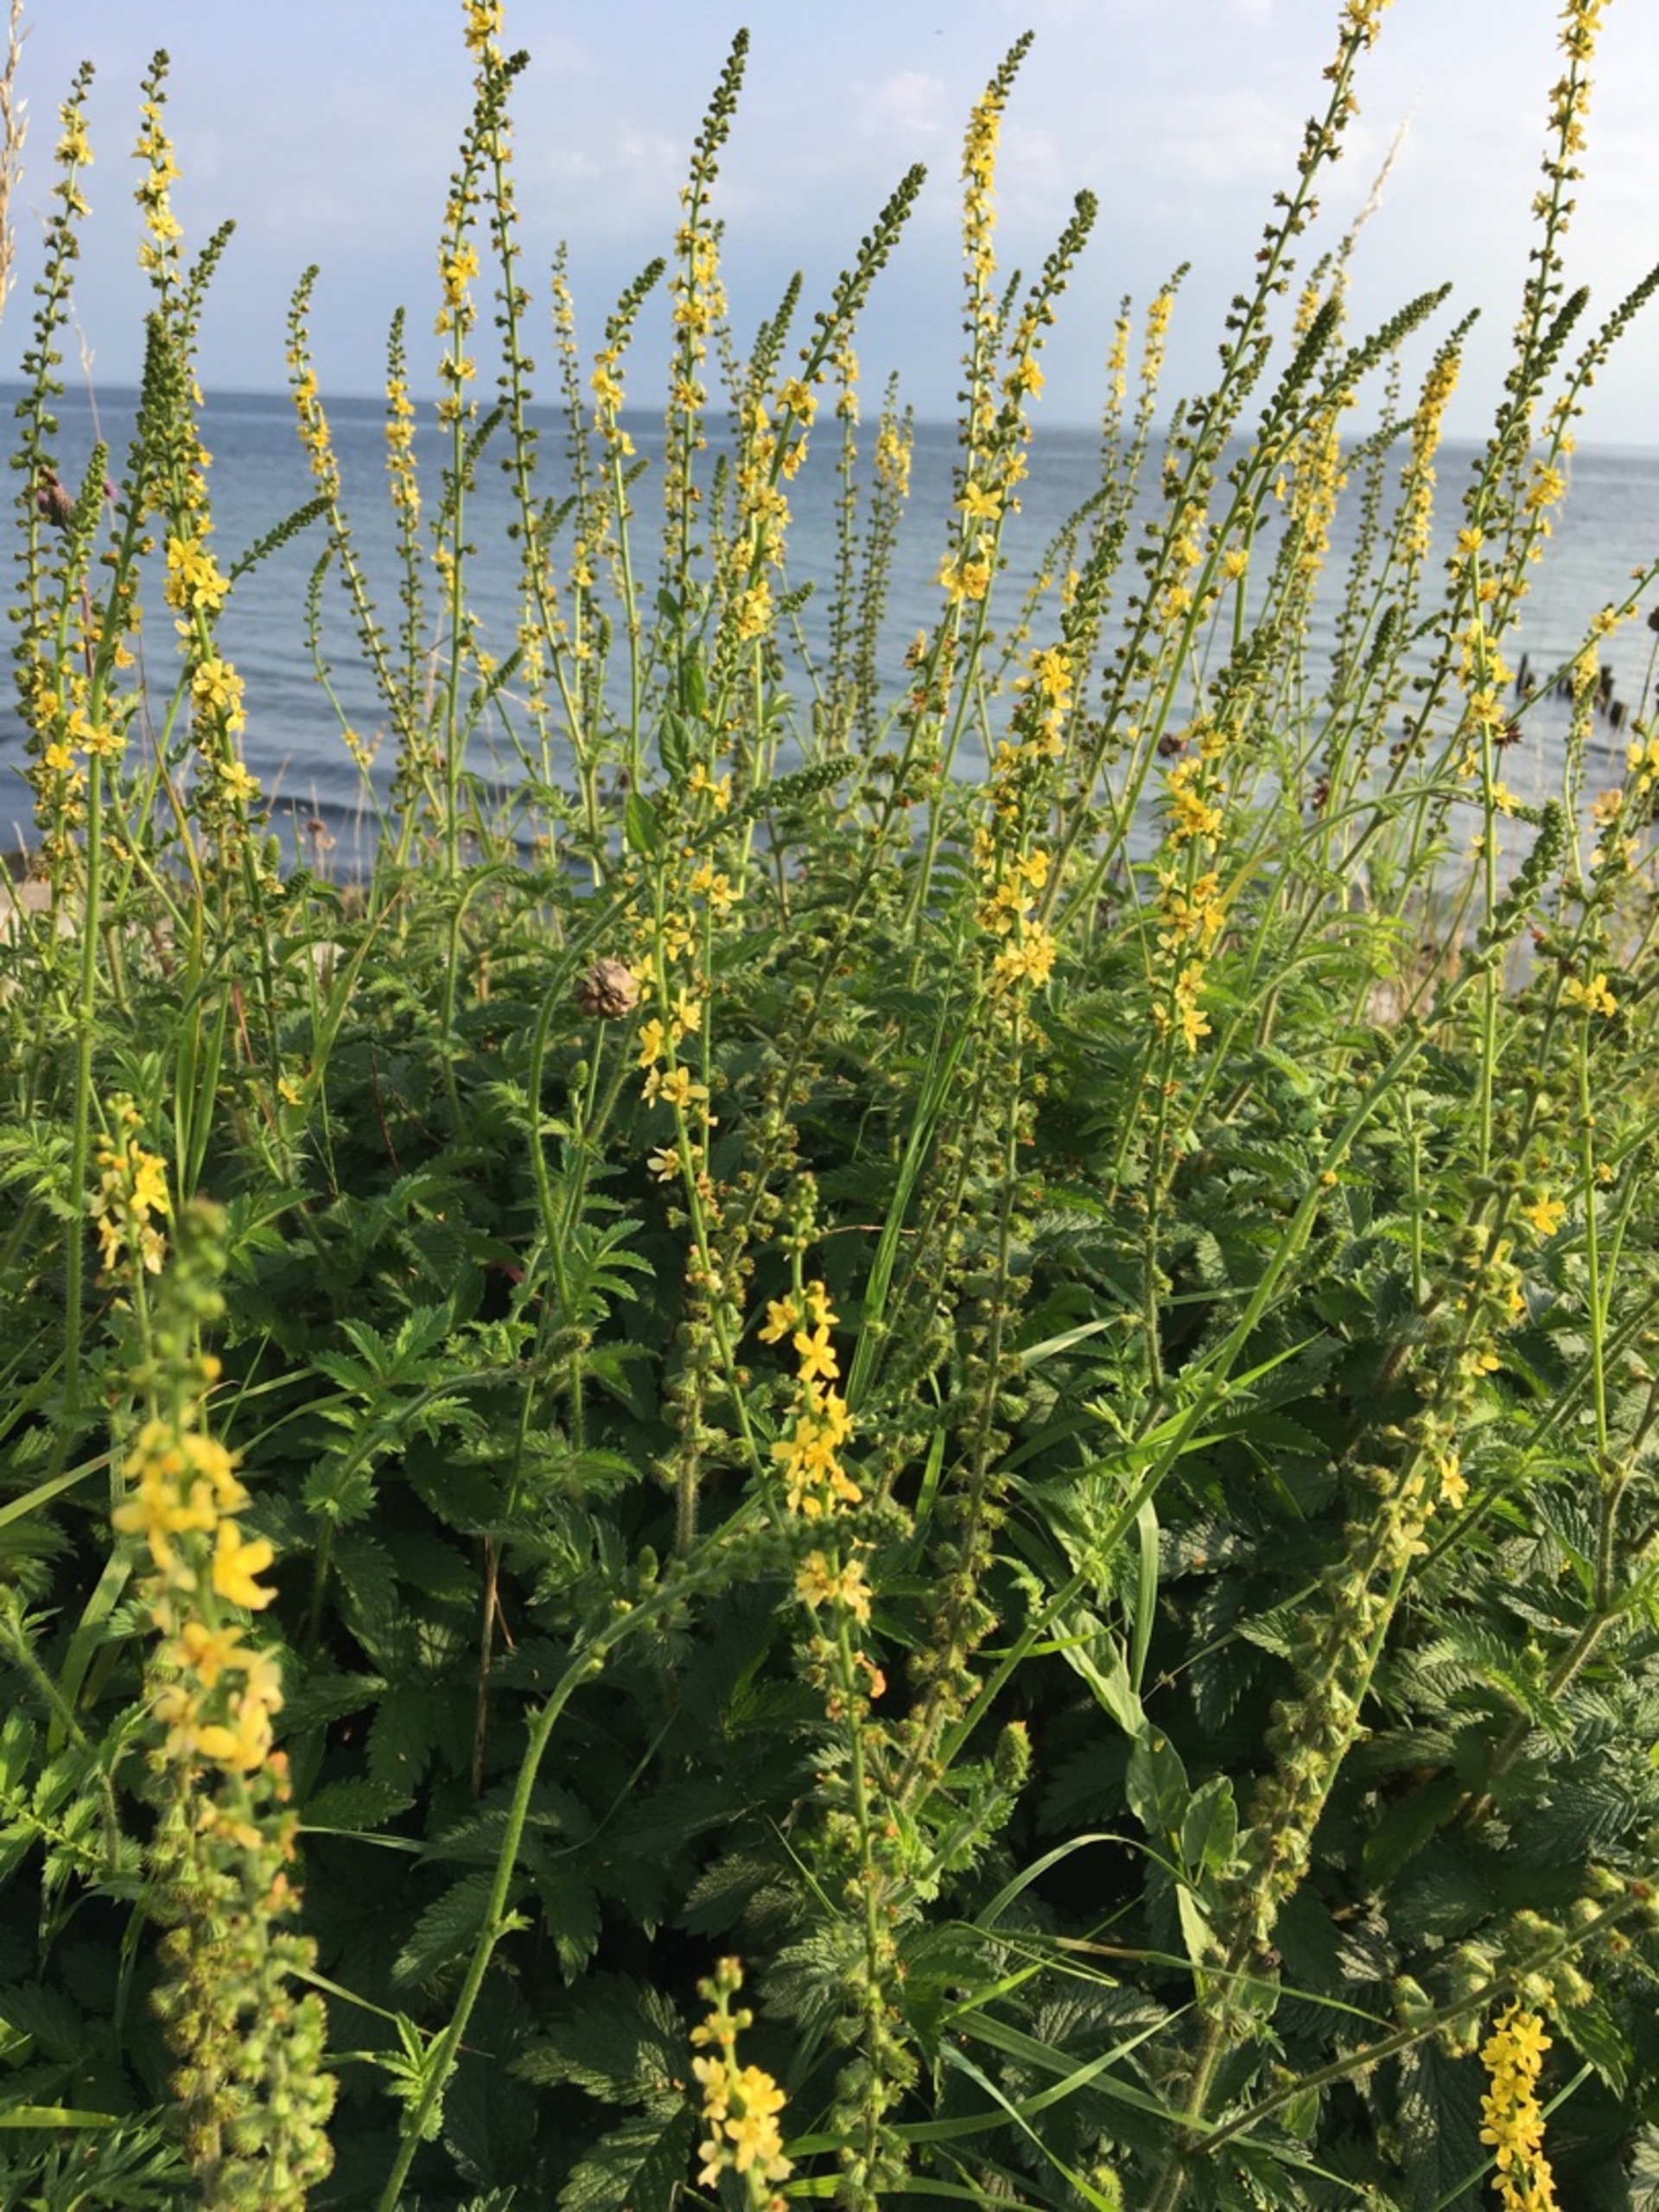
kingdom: Plantae
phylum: Tracheophyta
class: Magnoliopsida
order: Rosales
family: Rosaceae
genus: Agrimonia
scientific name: Agrimonia eupatoria
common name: Almindelig agermåne
